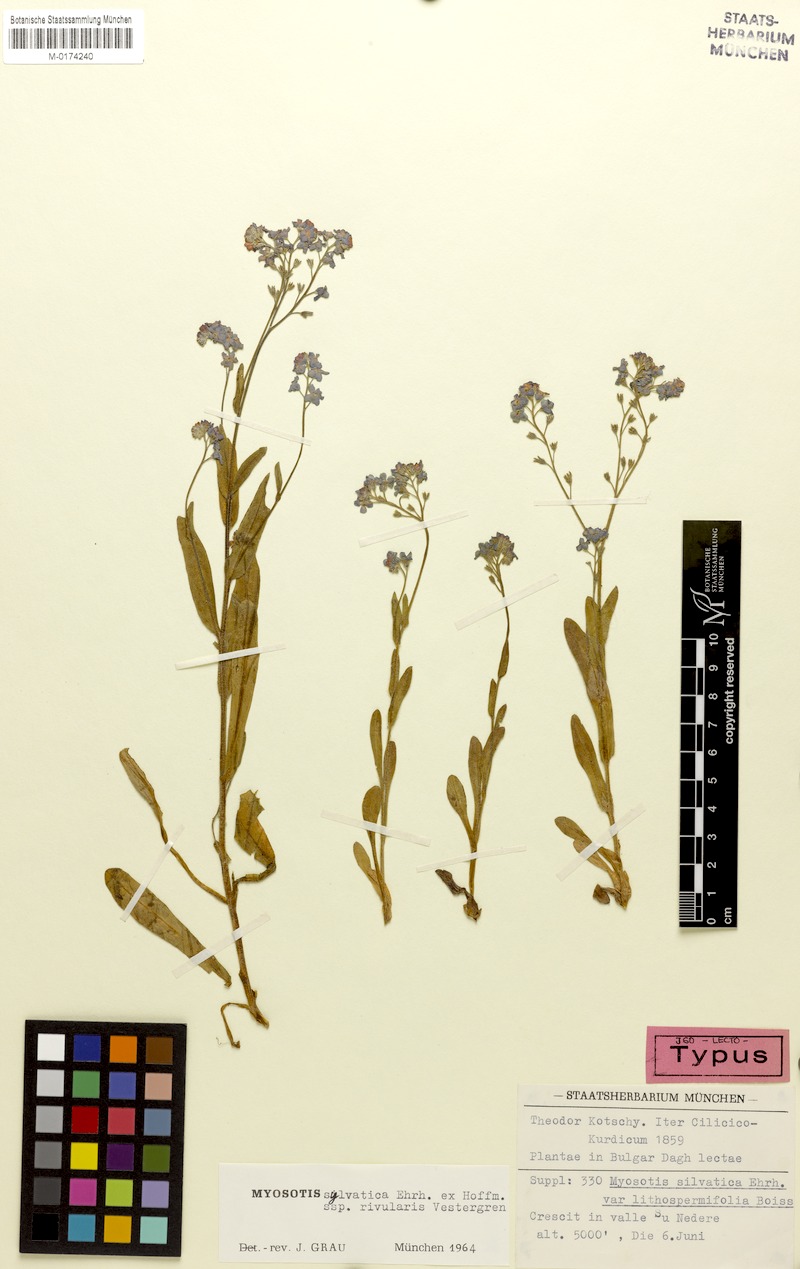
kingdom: Plantae
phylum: Tracheophyta
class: Magnoliopsida
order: Boraginales
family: Boraginaceae
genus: Myosotis
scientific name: Myosotis rivularis
